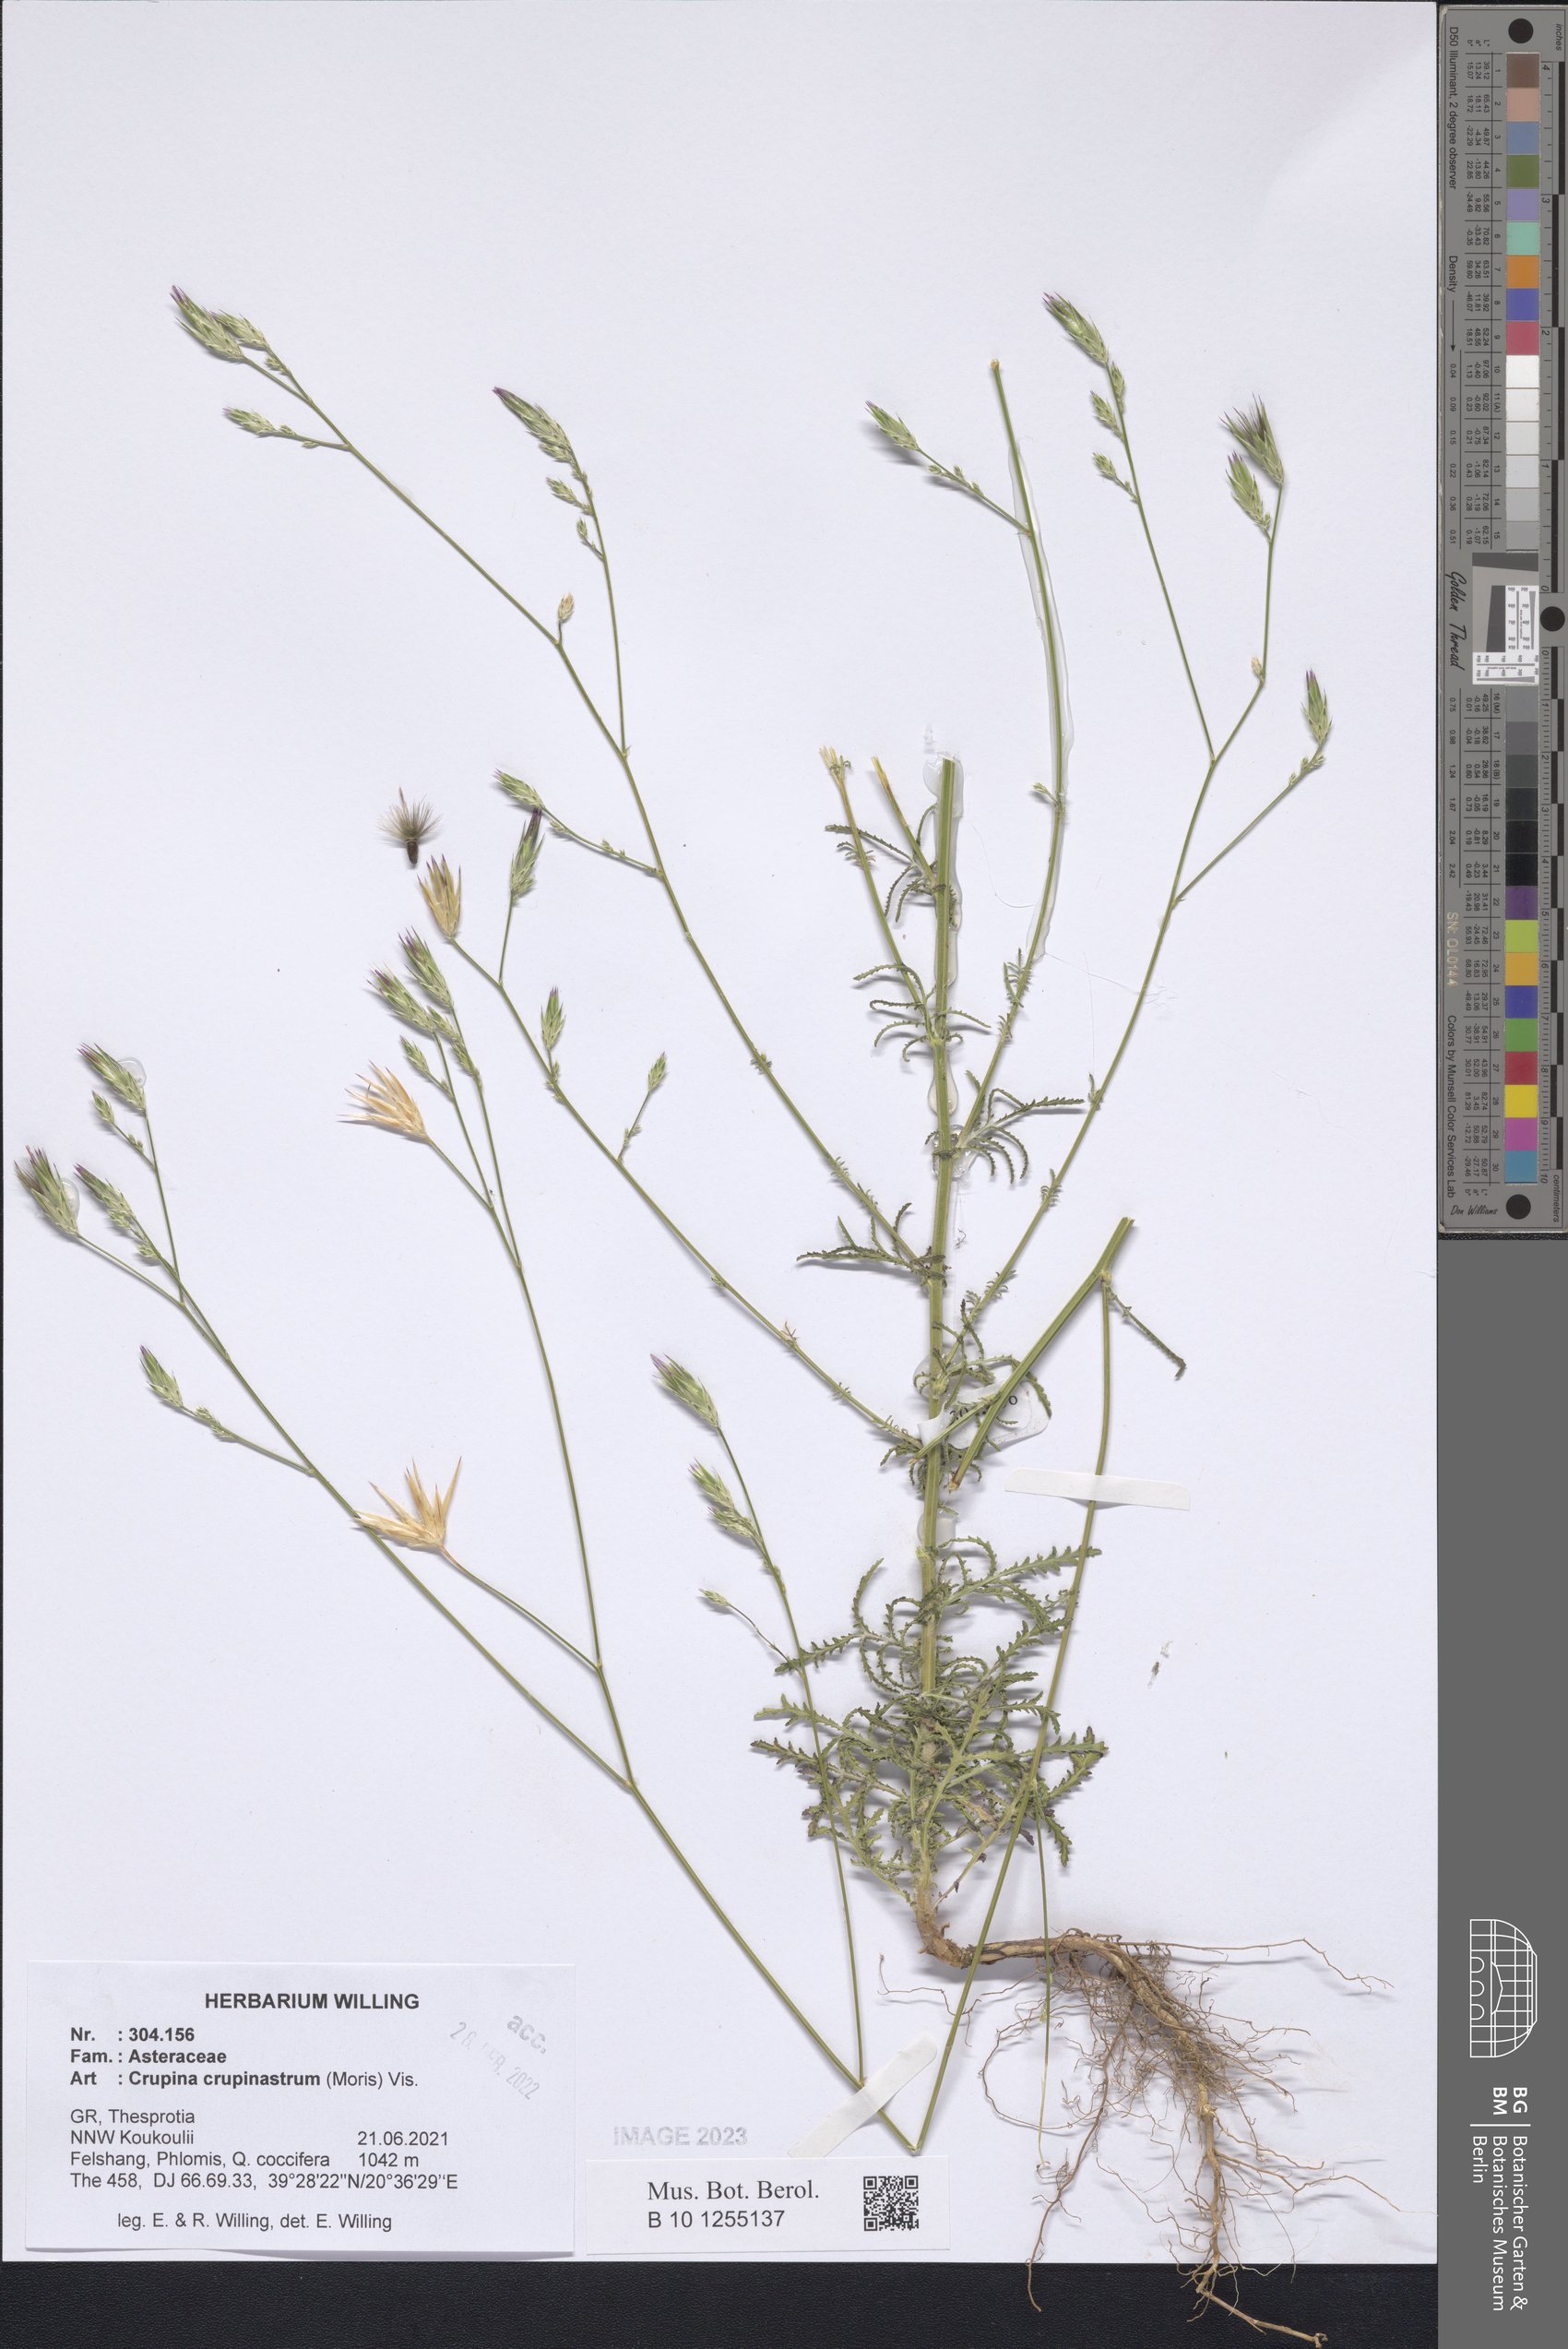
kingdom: Plantae
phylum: Tracheophyta
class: Magnoliopsida
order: Asterales
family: Asteraceae
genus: Crupina
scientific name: Crupina crupinastrum
